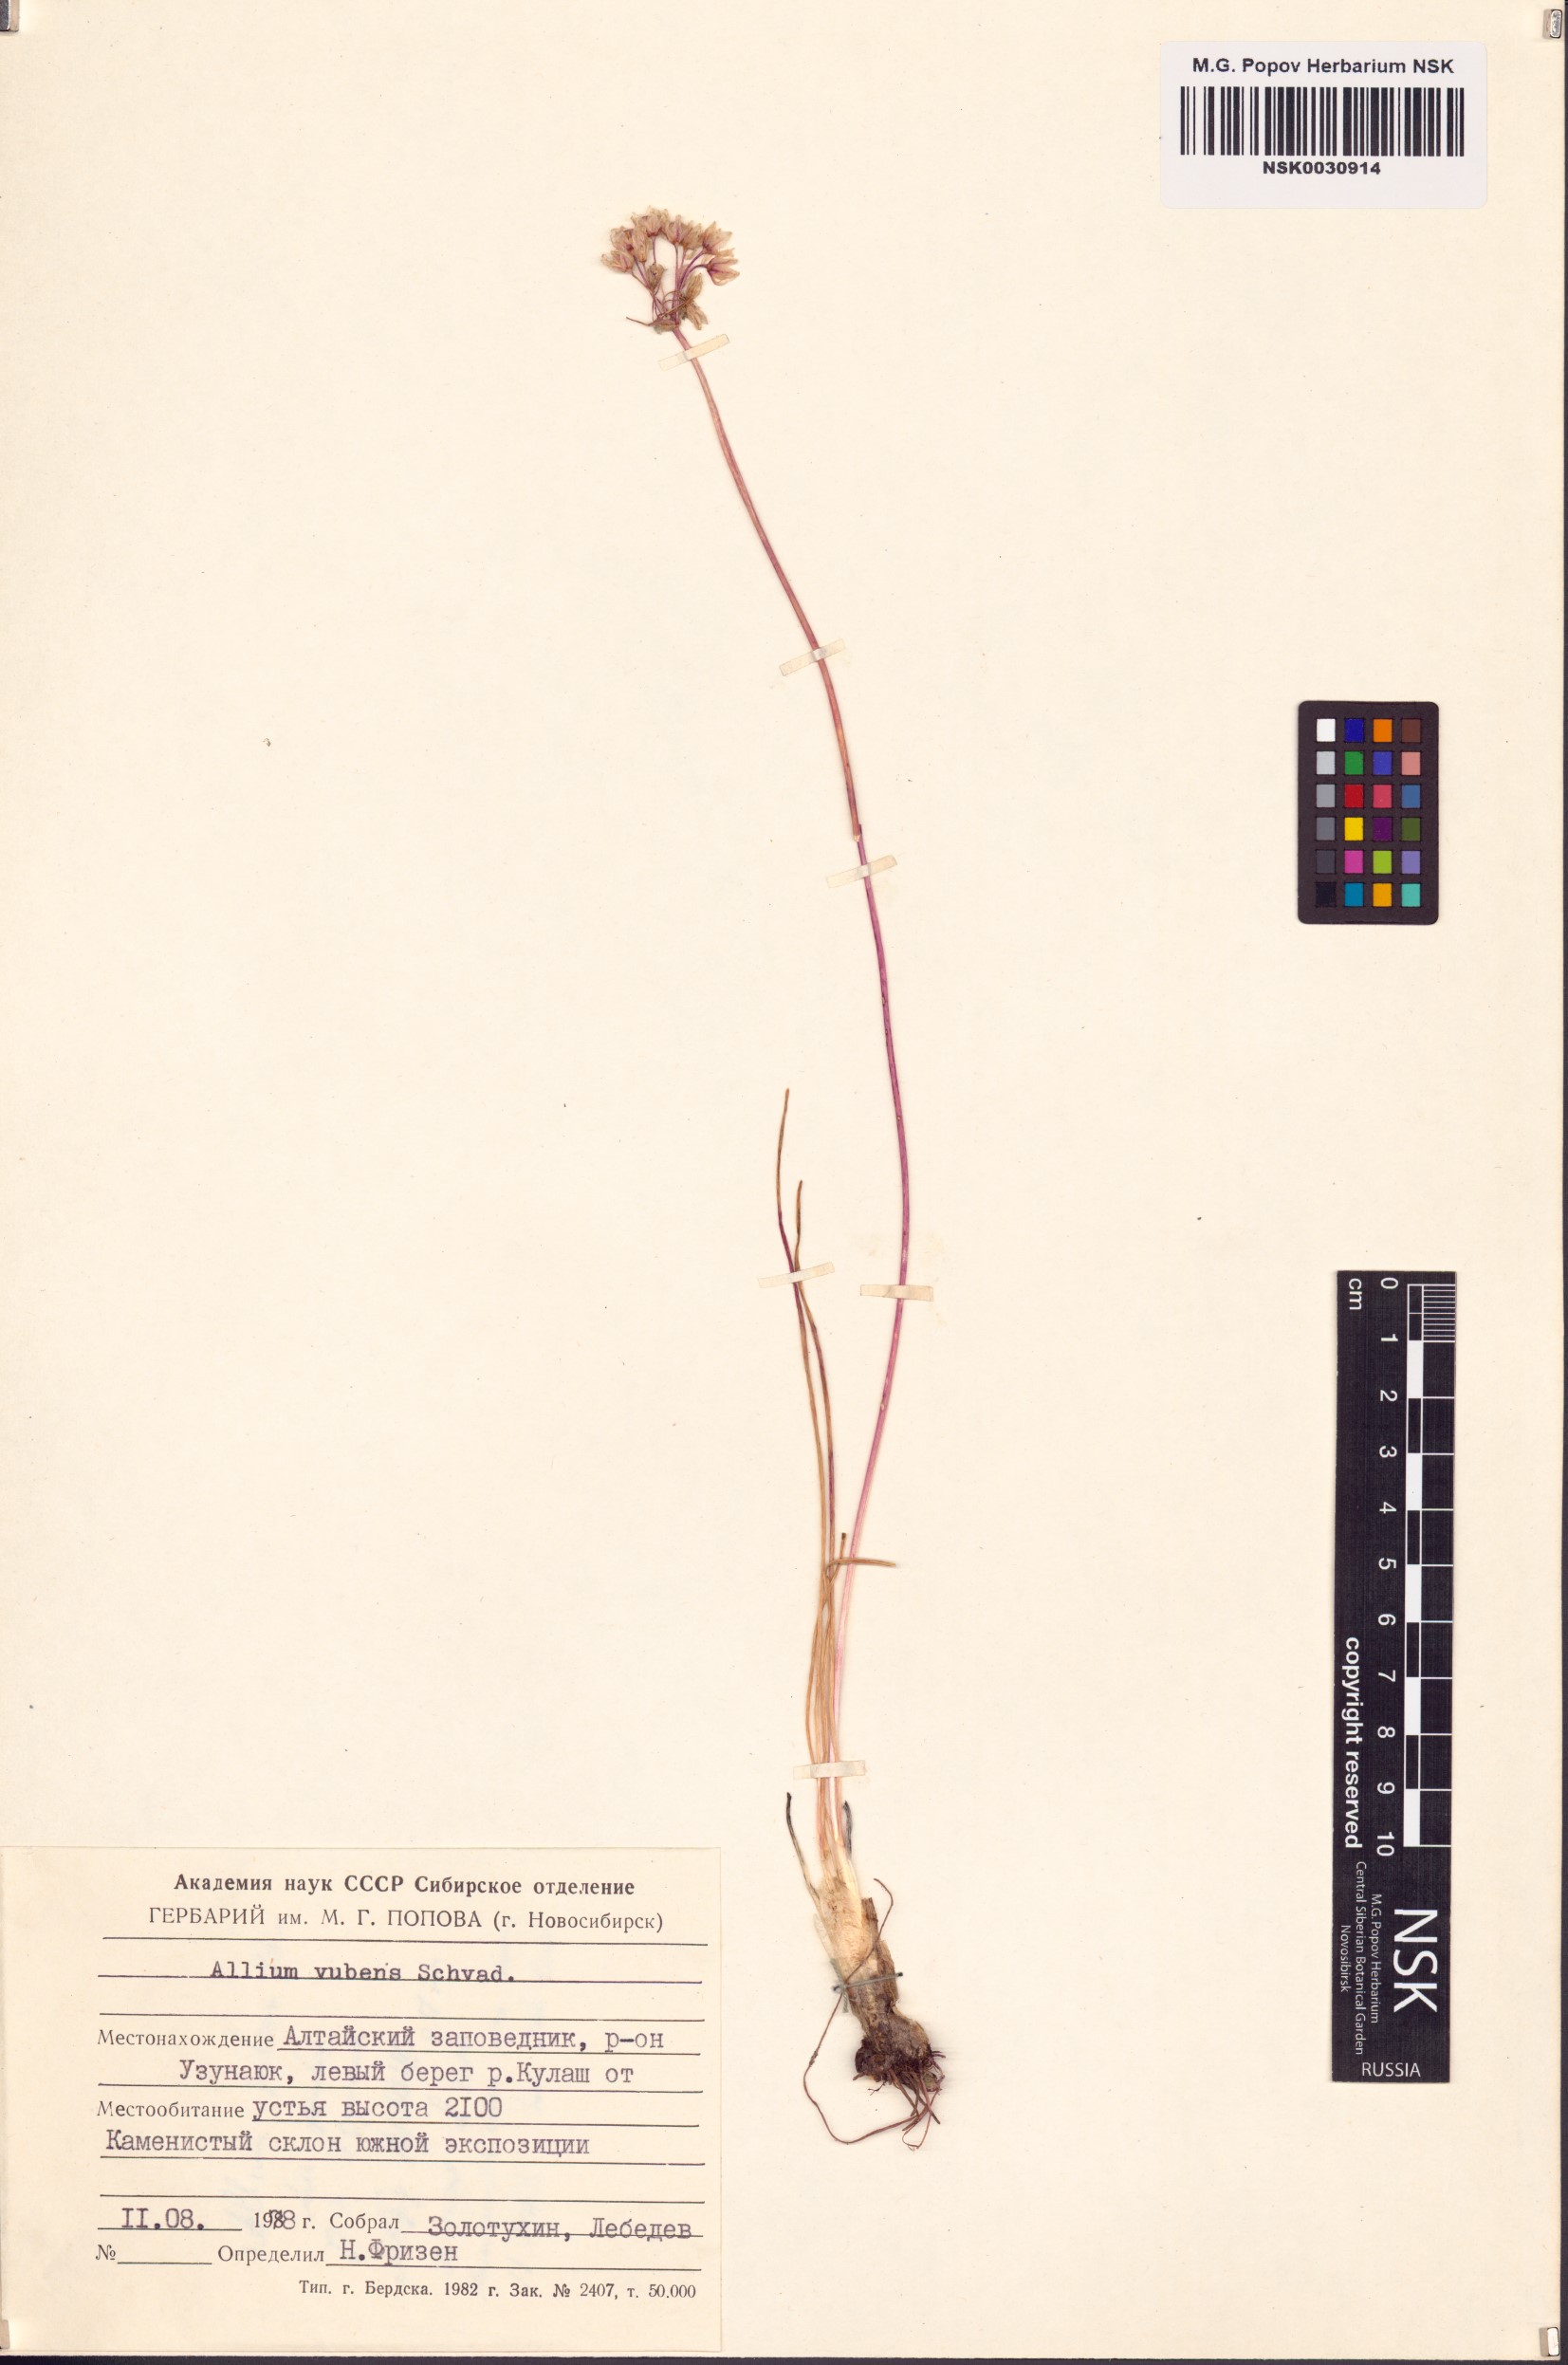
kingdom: Plantae
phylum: Tracheophyta
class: Liliopsida
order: Asparagales
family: Amaryllidaceae
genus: Allium
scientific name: Allium rubens
